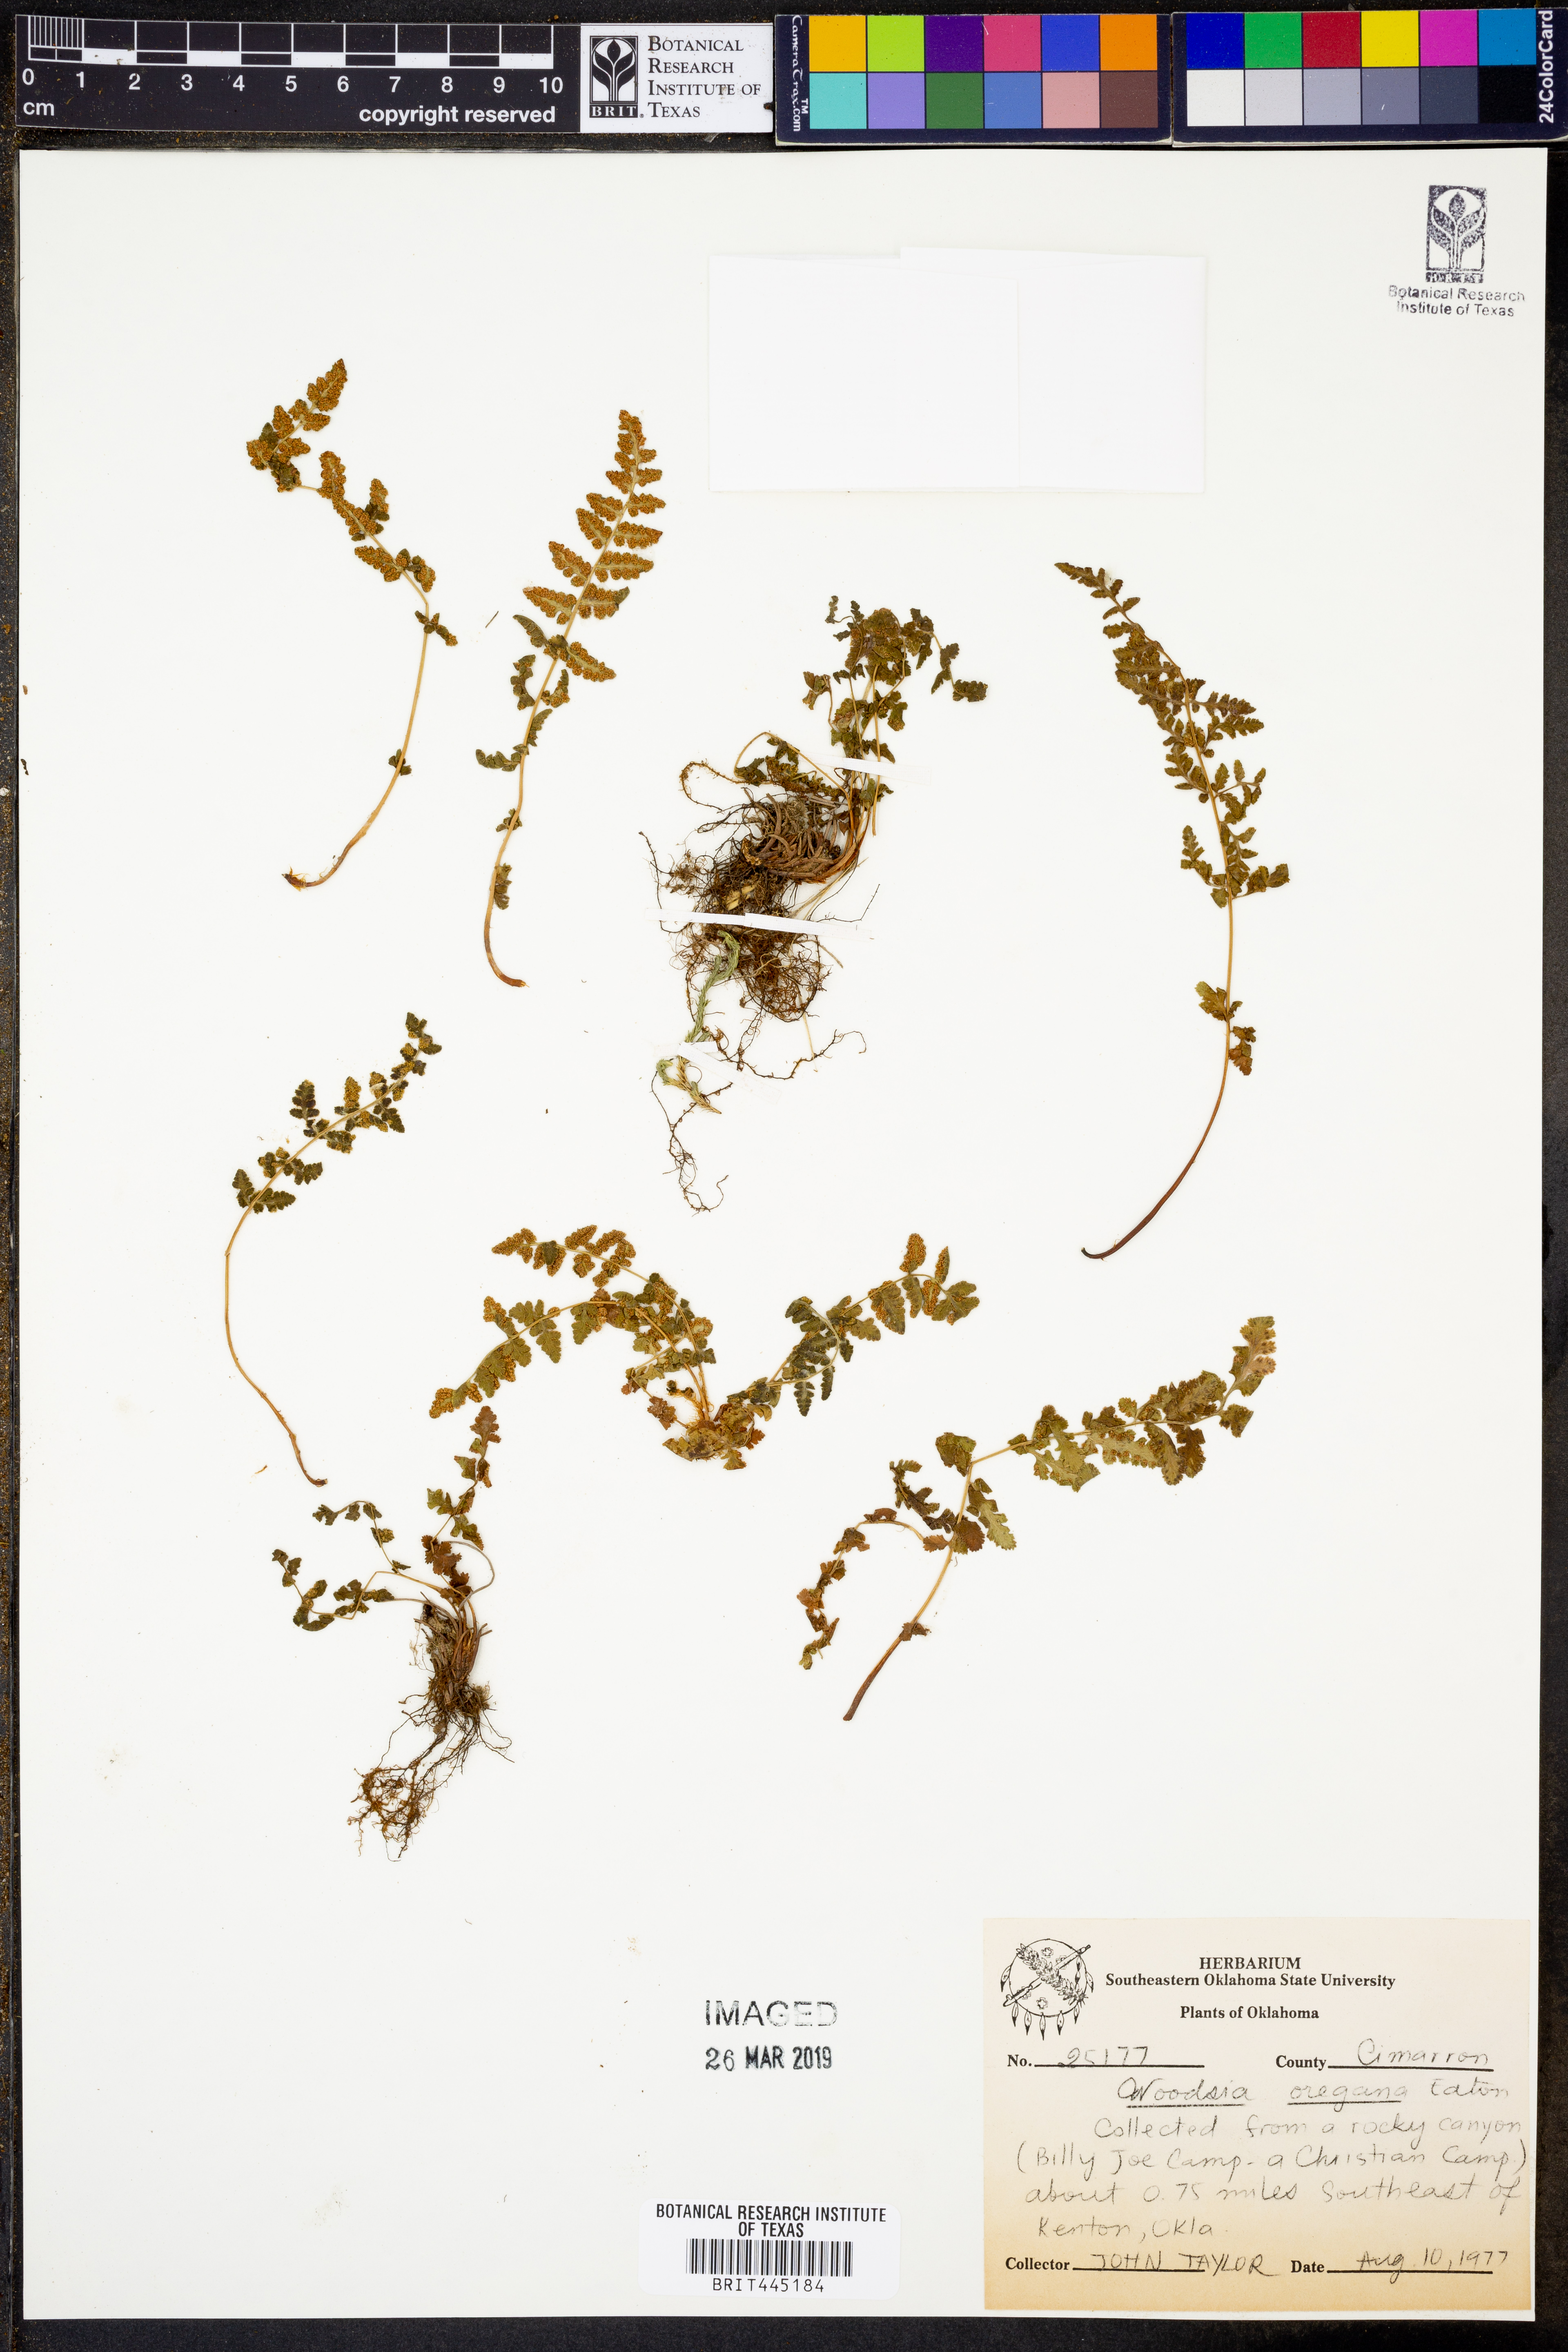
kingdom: Plantae
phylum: Tracheophyta
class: Polypodiopsida
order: Polypodiales
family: Woodsiaceae
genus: Physematium
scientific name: Physematium oreganum
